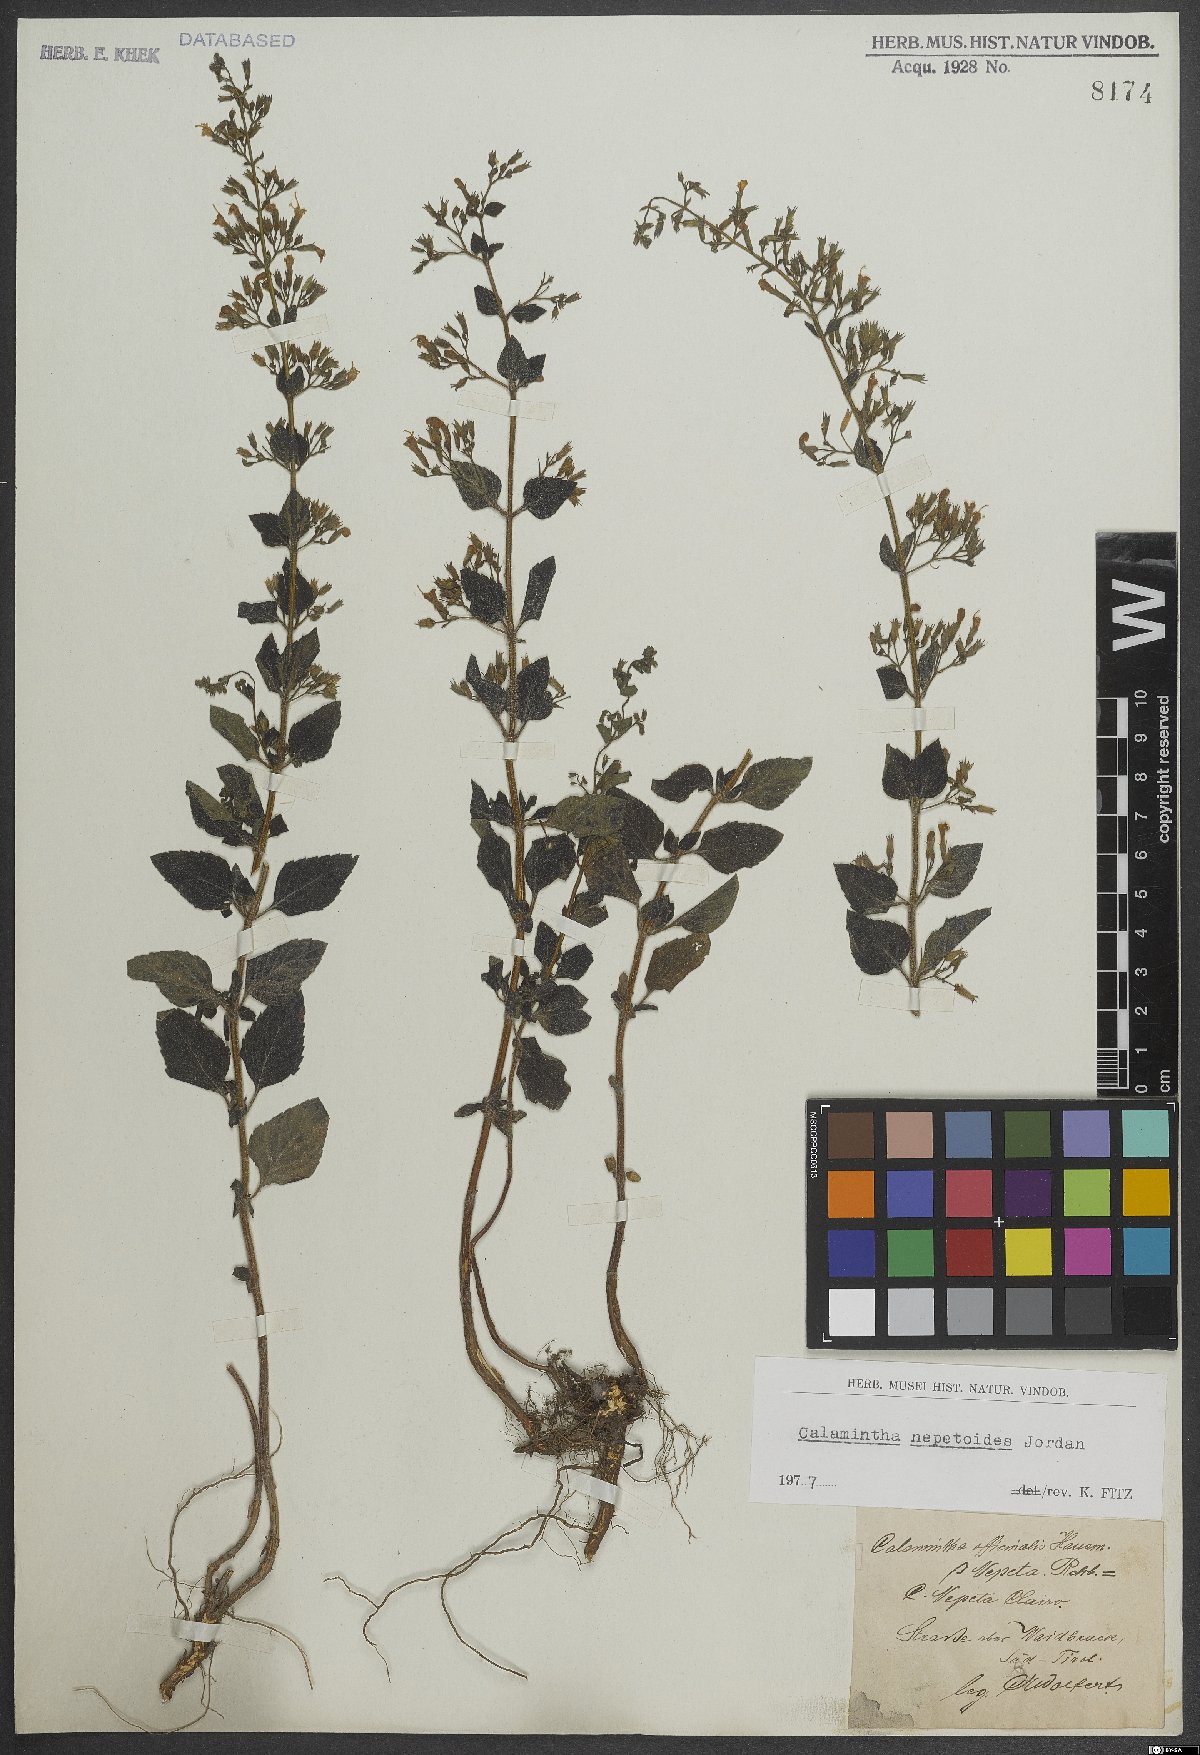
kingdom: Plantae
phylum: Tracheophyta
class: Magnoliopsida
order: Lamiales
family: Lamiaceae
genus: Clinopodium
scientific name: Clinopodium nepeta
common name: Lesser calamint
